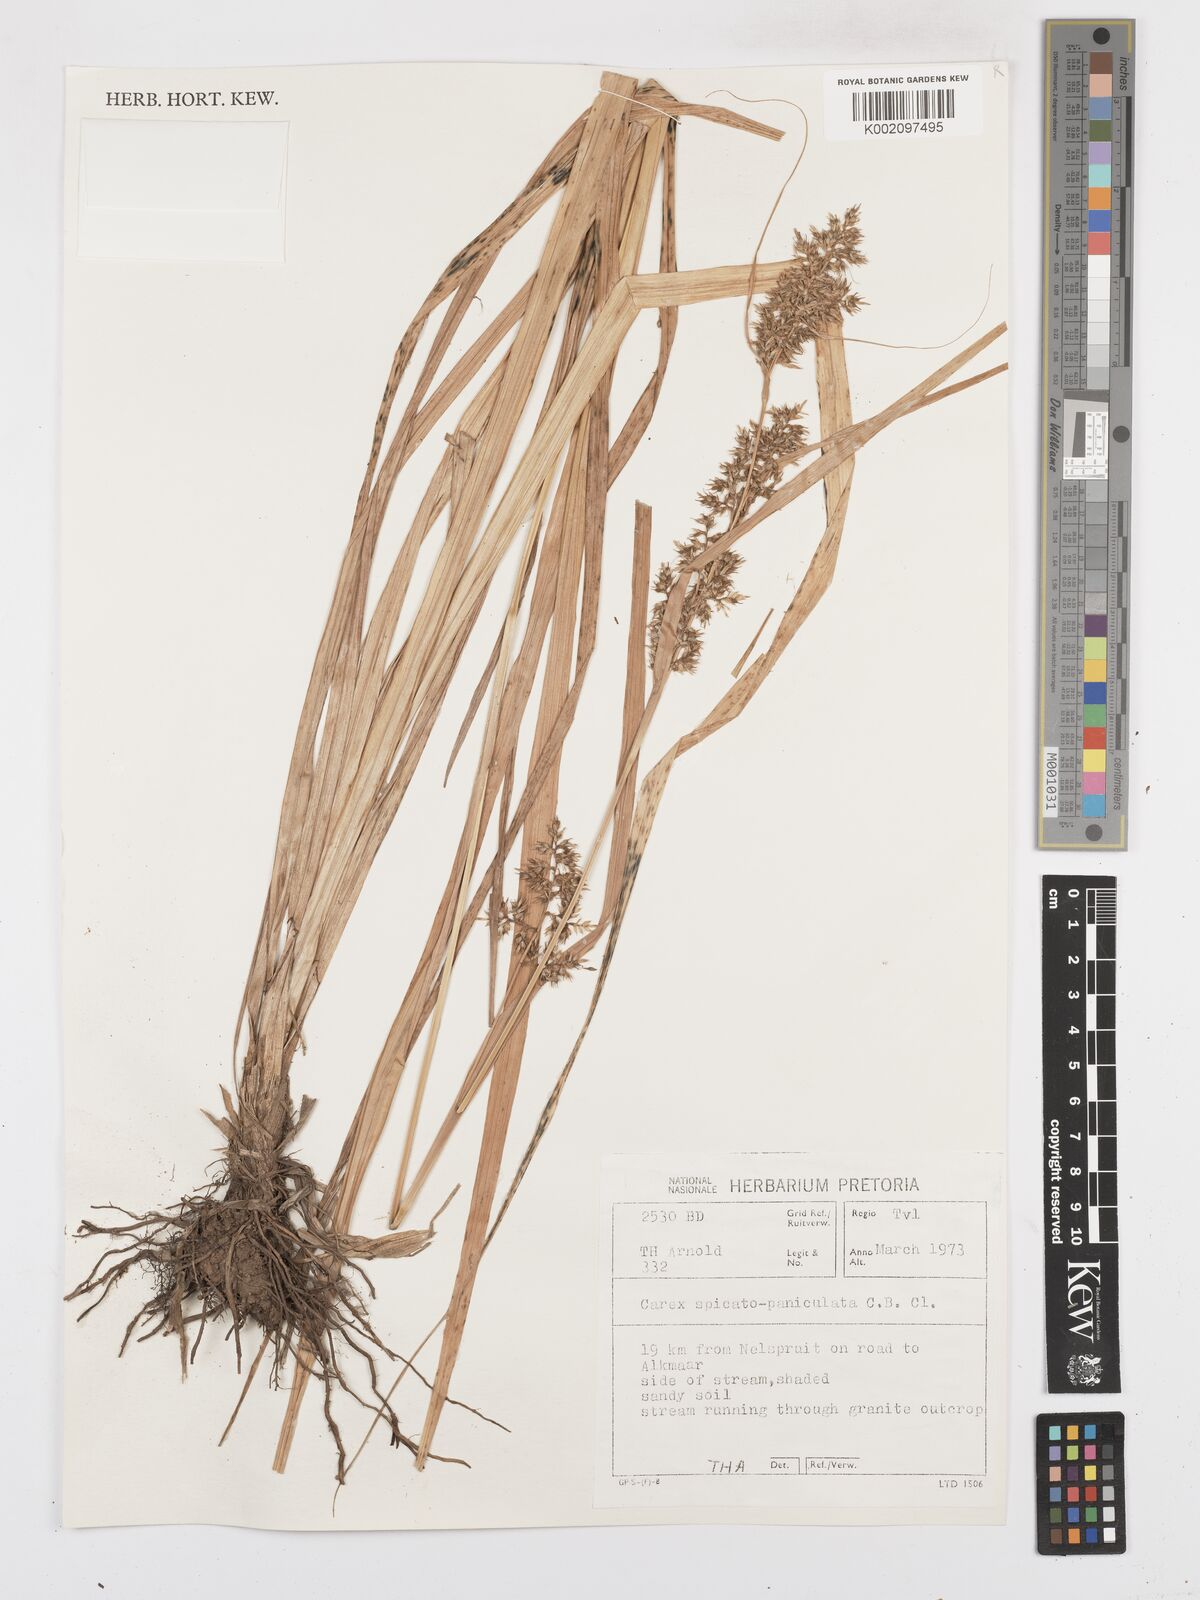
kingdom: Plantae
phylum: Tracheophyta
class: Liliopsida
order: Poales
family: Cyperaceae
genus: Carex
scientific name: Carex spicatopaniculata
